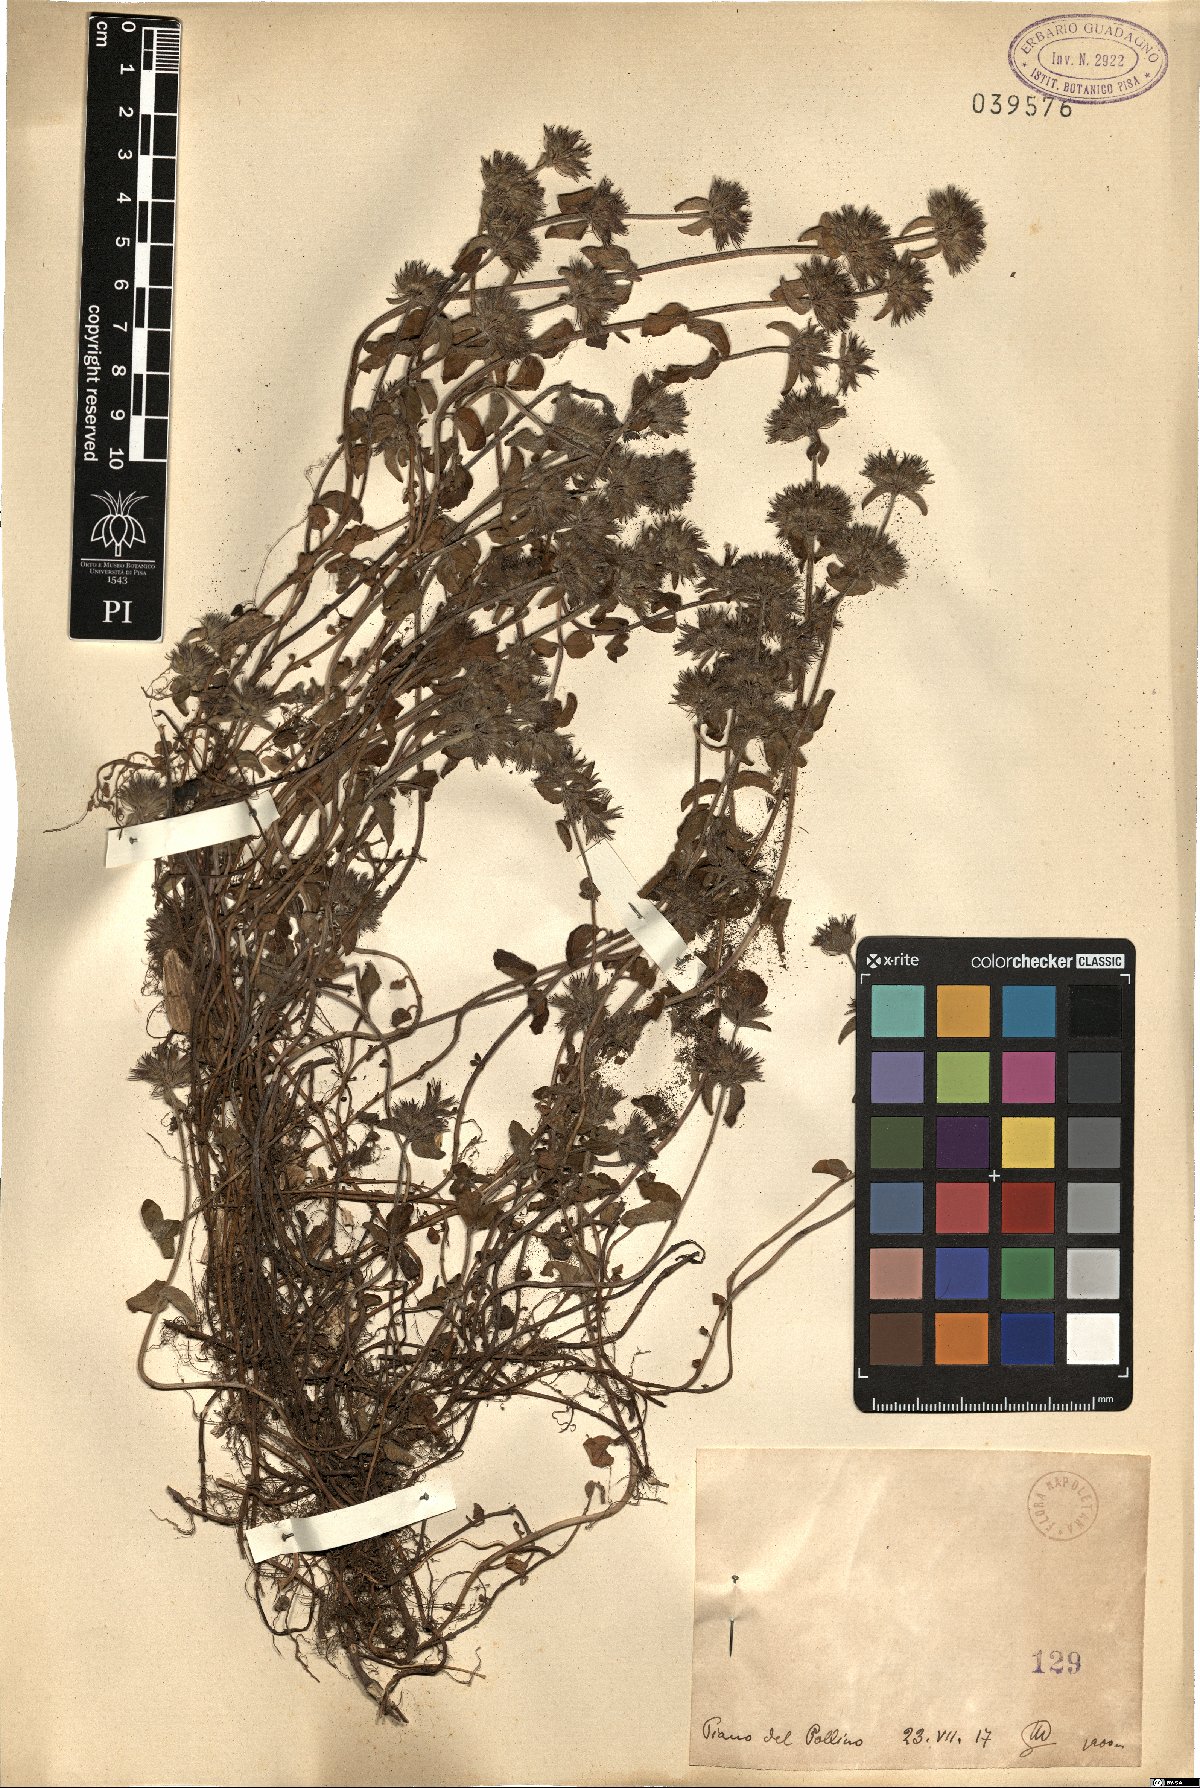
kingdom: Plantae
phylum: Tracheophyta
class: Magnoliopsida
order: Lamiales
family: Lamiaceae
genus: Micromeria
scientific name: Micromeria
